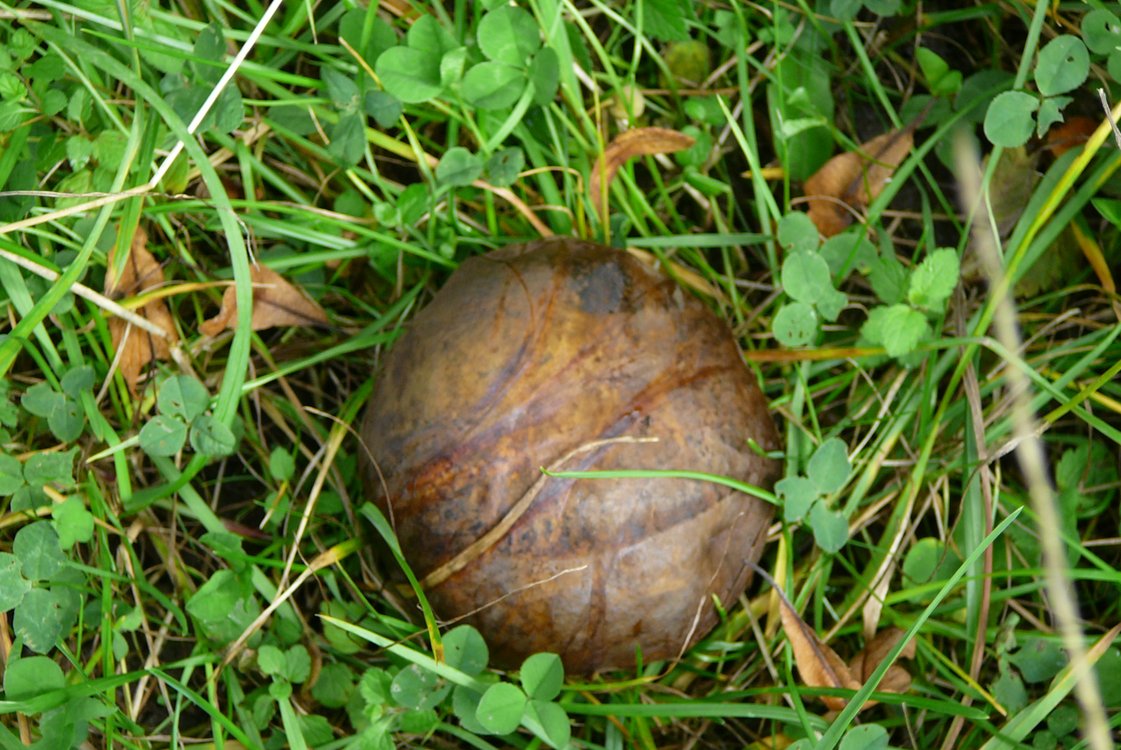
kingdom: Fungi
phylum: Basidiomycota
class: Agaricomycetes
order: Boletales
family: Boletaceae
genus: Neoboletus
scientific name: Neoboletus erythropus
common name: punktstokket indigorørhat
